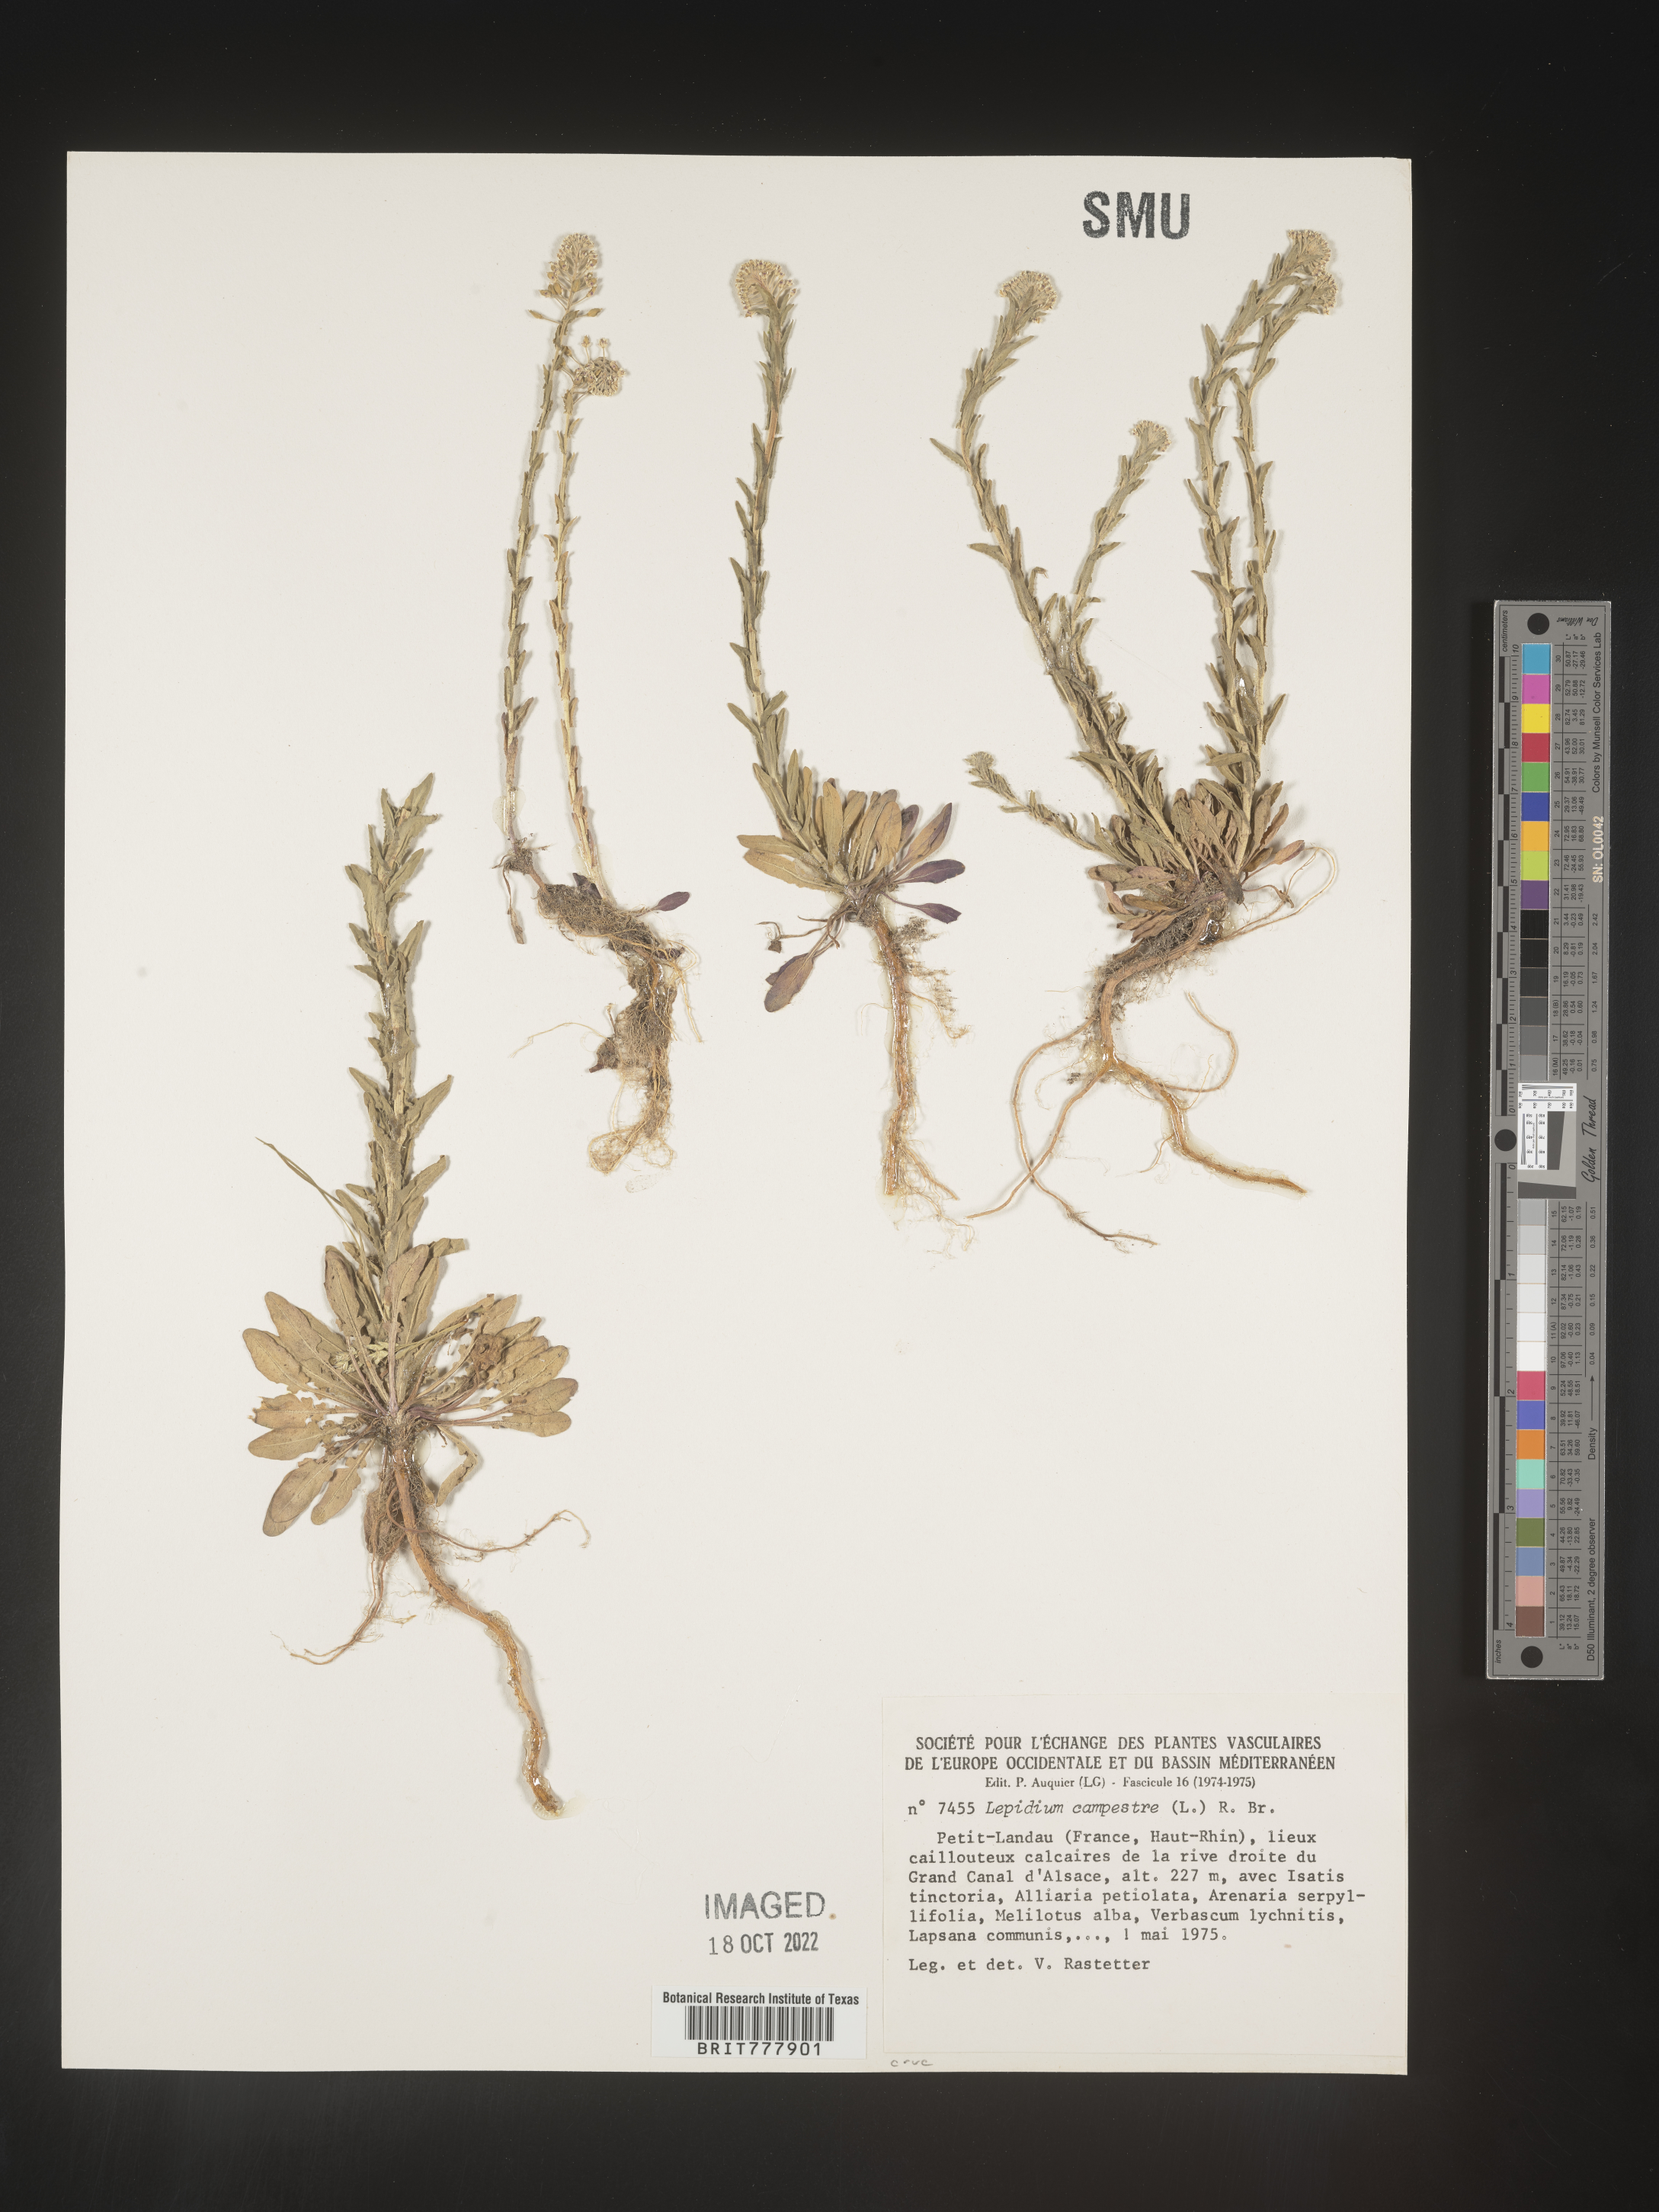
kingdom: Plantae
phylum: Tracheophyta
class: Magnoliopsida
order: Brassicales
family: Brassicaceae
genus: Lepidium
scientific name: Lepidium
